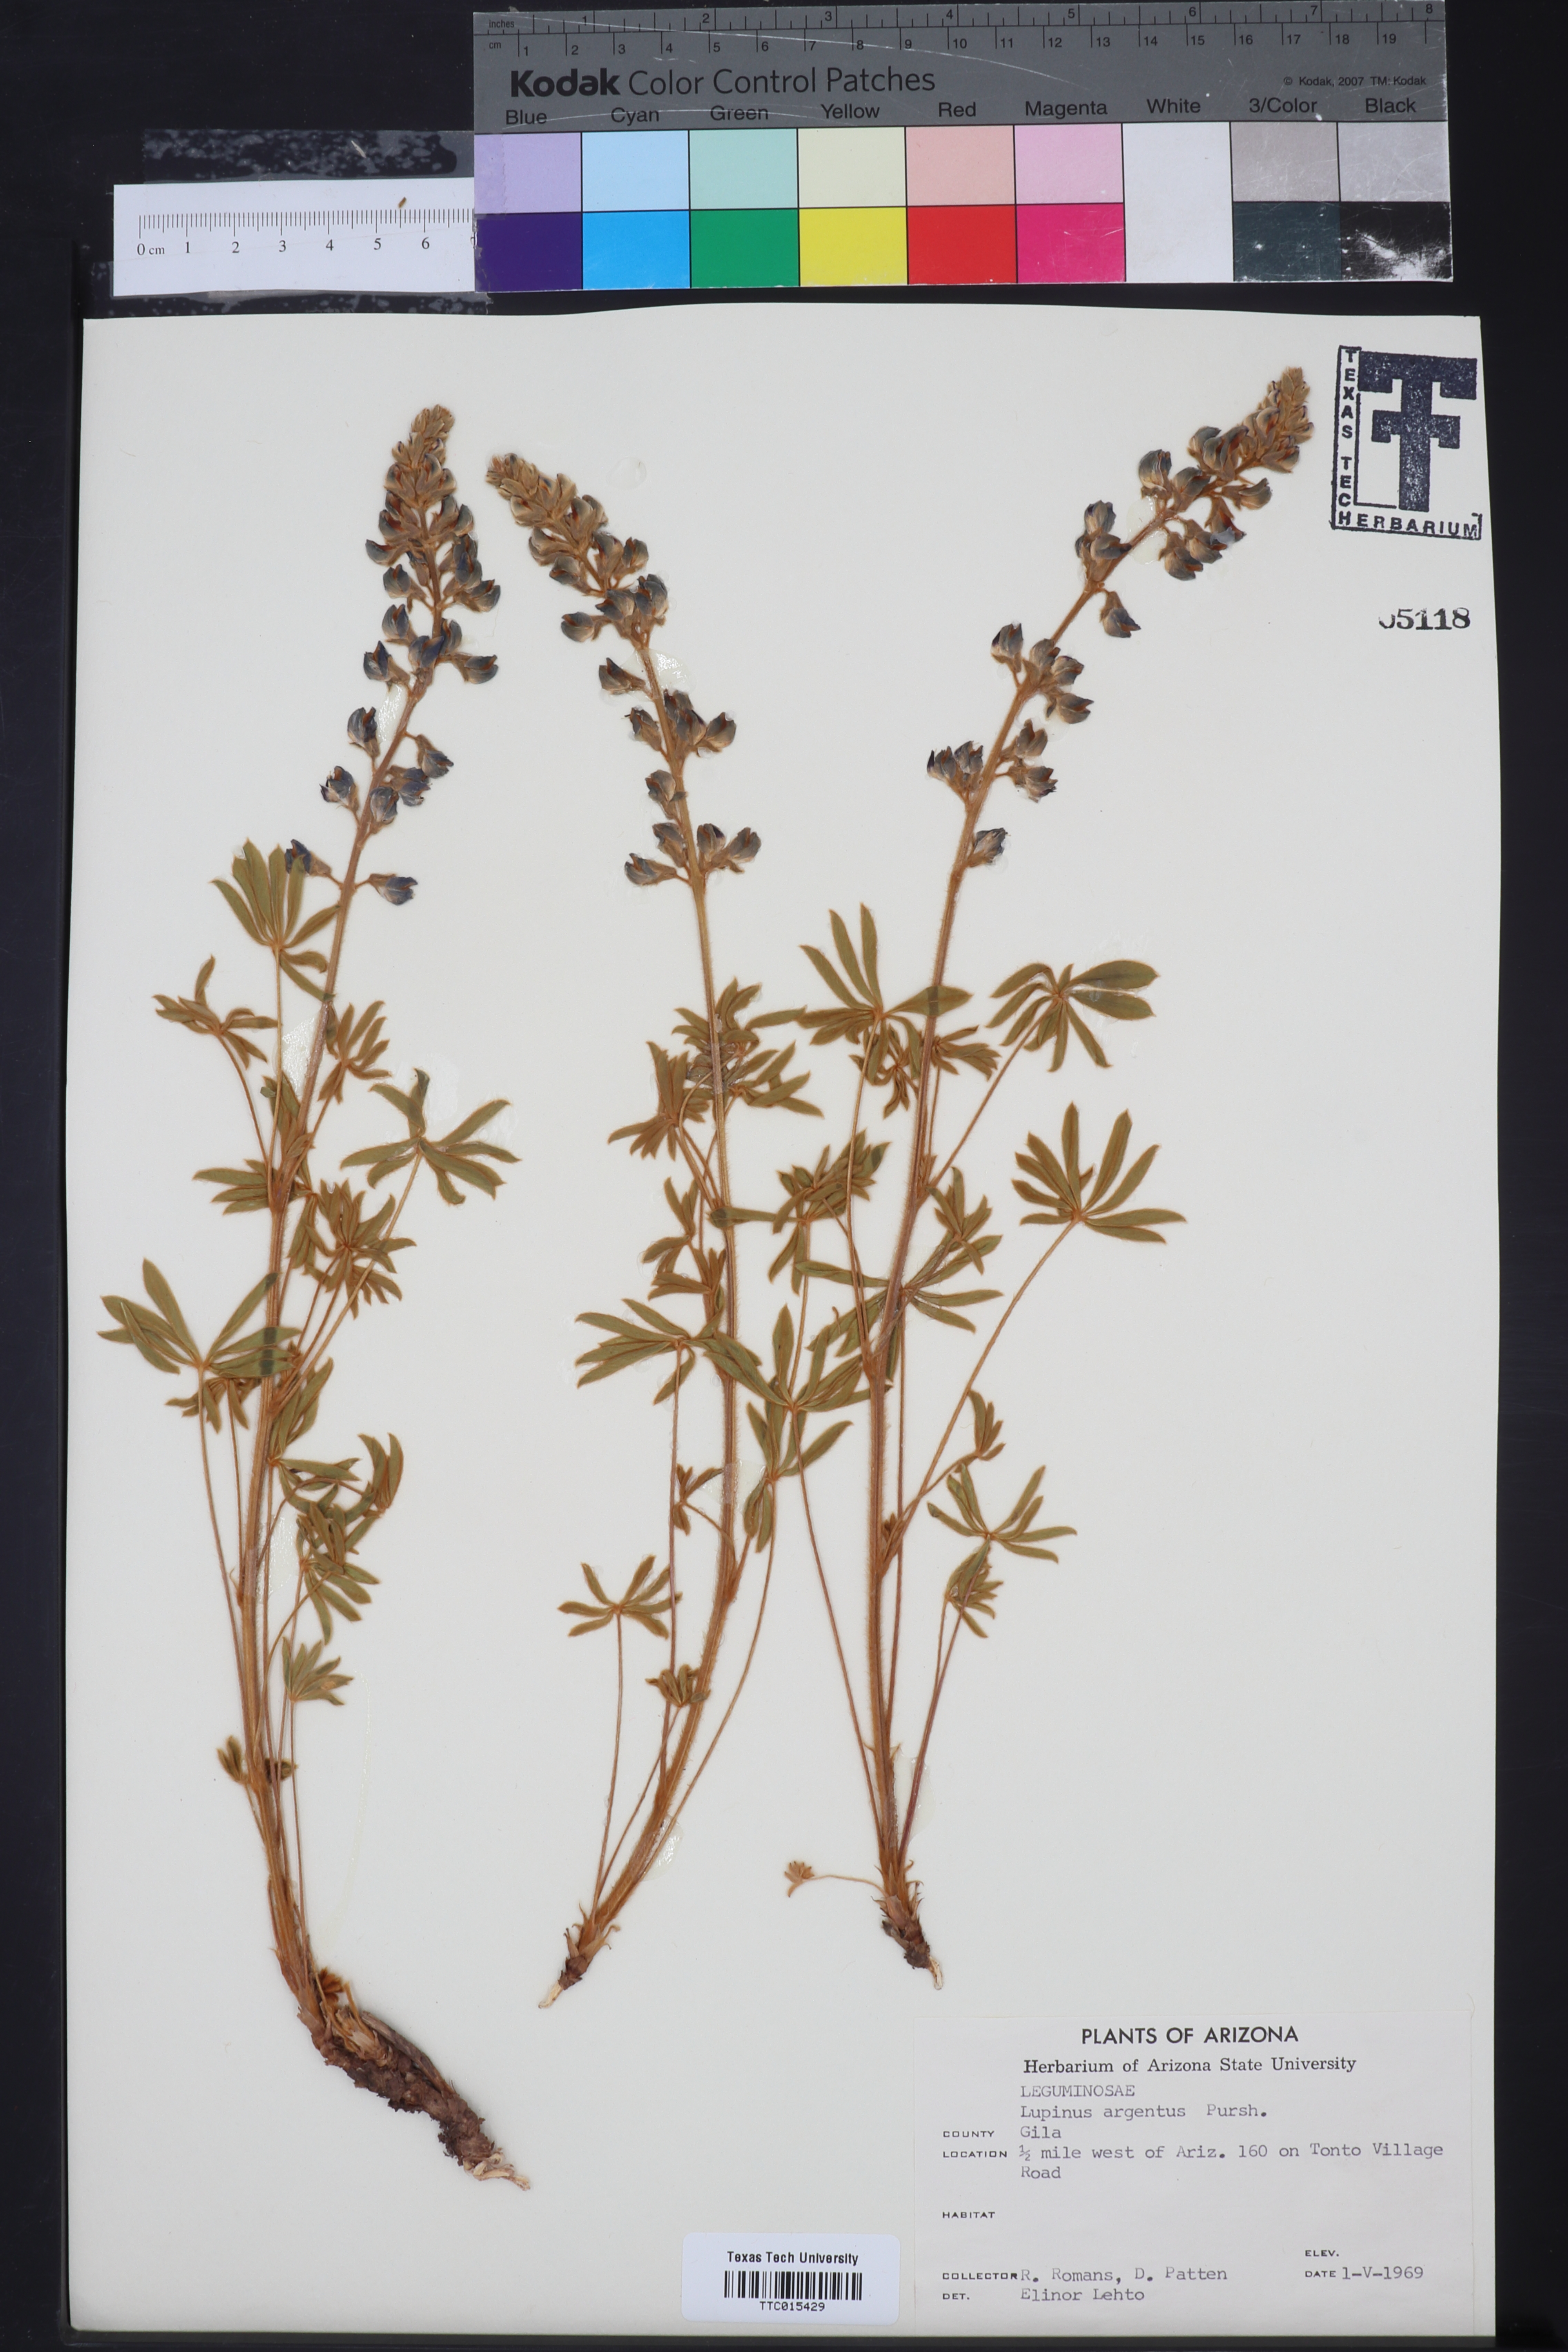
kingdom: Plantae
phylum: Tracheophyta
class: Magnoliopsida
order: Fabales
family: Fabaceae
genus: Lupinus
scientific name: Lupinus argenteus
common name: Silvery lupine
